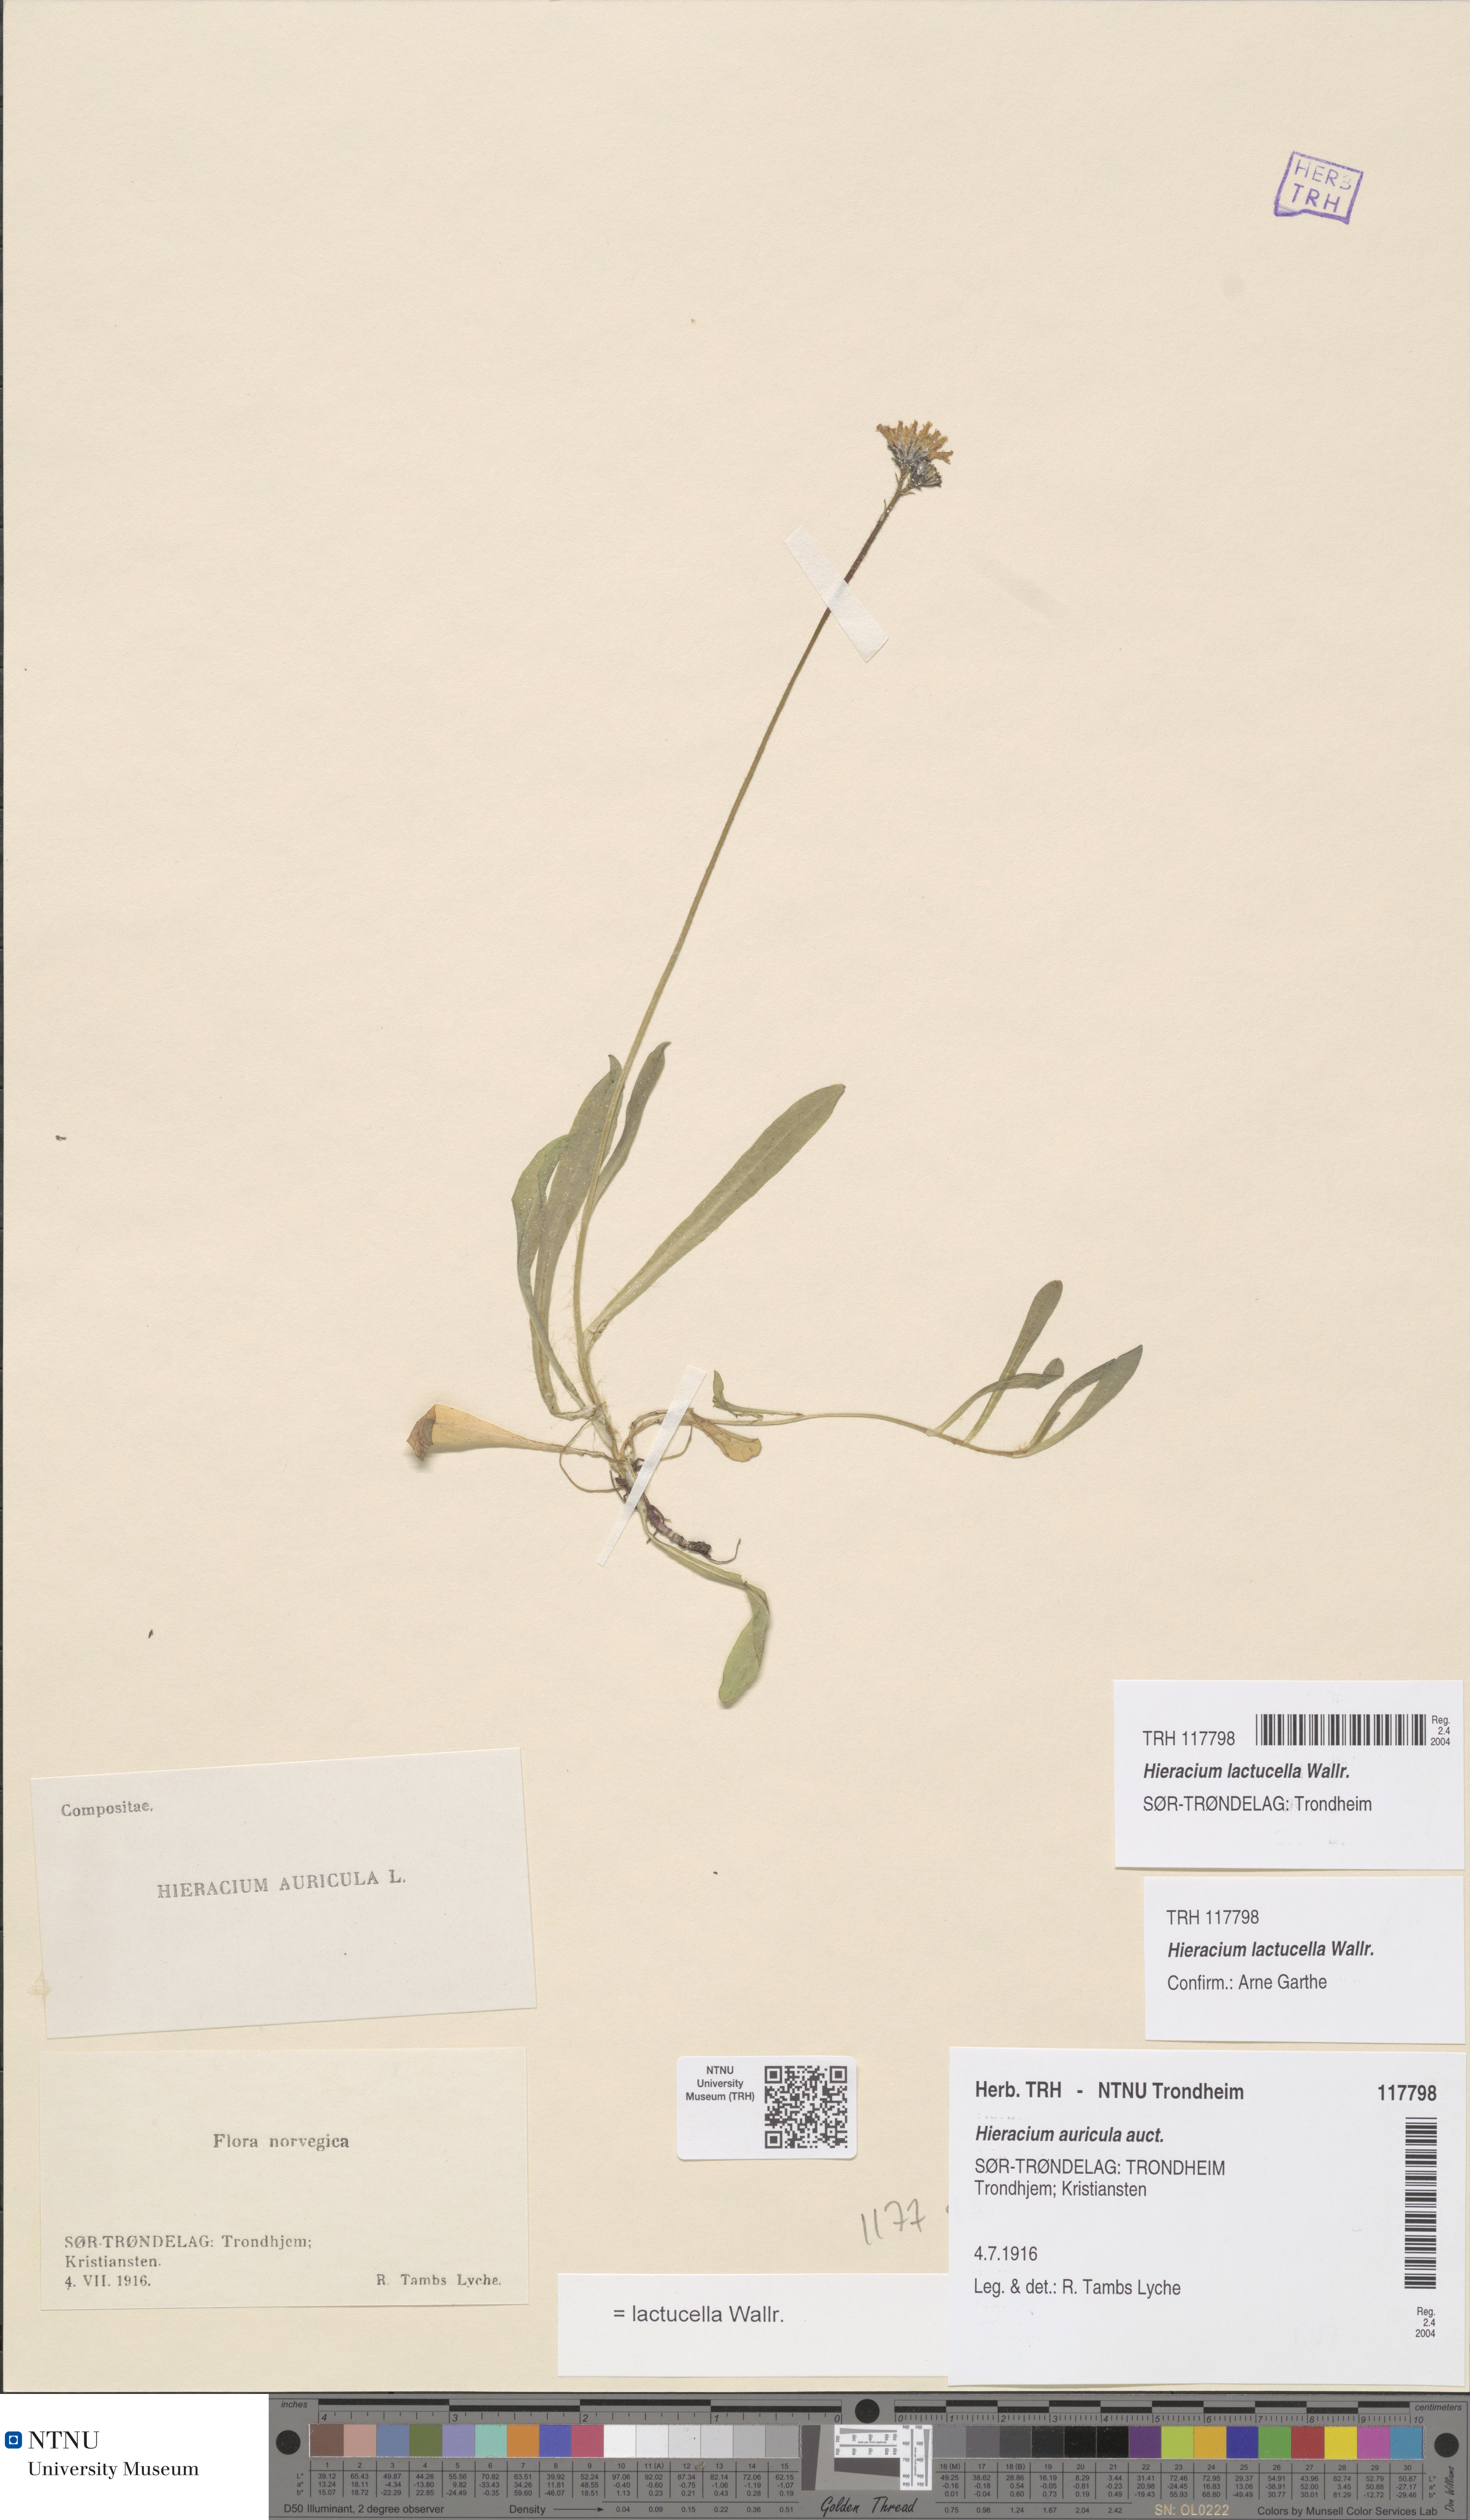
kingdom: Plantae
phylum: Tracheophyta
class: Magnoliopsida
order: Asterales
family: Asteraceae
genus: Pilosella
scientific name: Pilosella lactucella
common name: Glaucous fox-and-cubs
